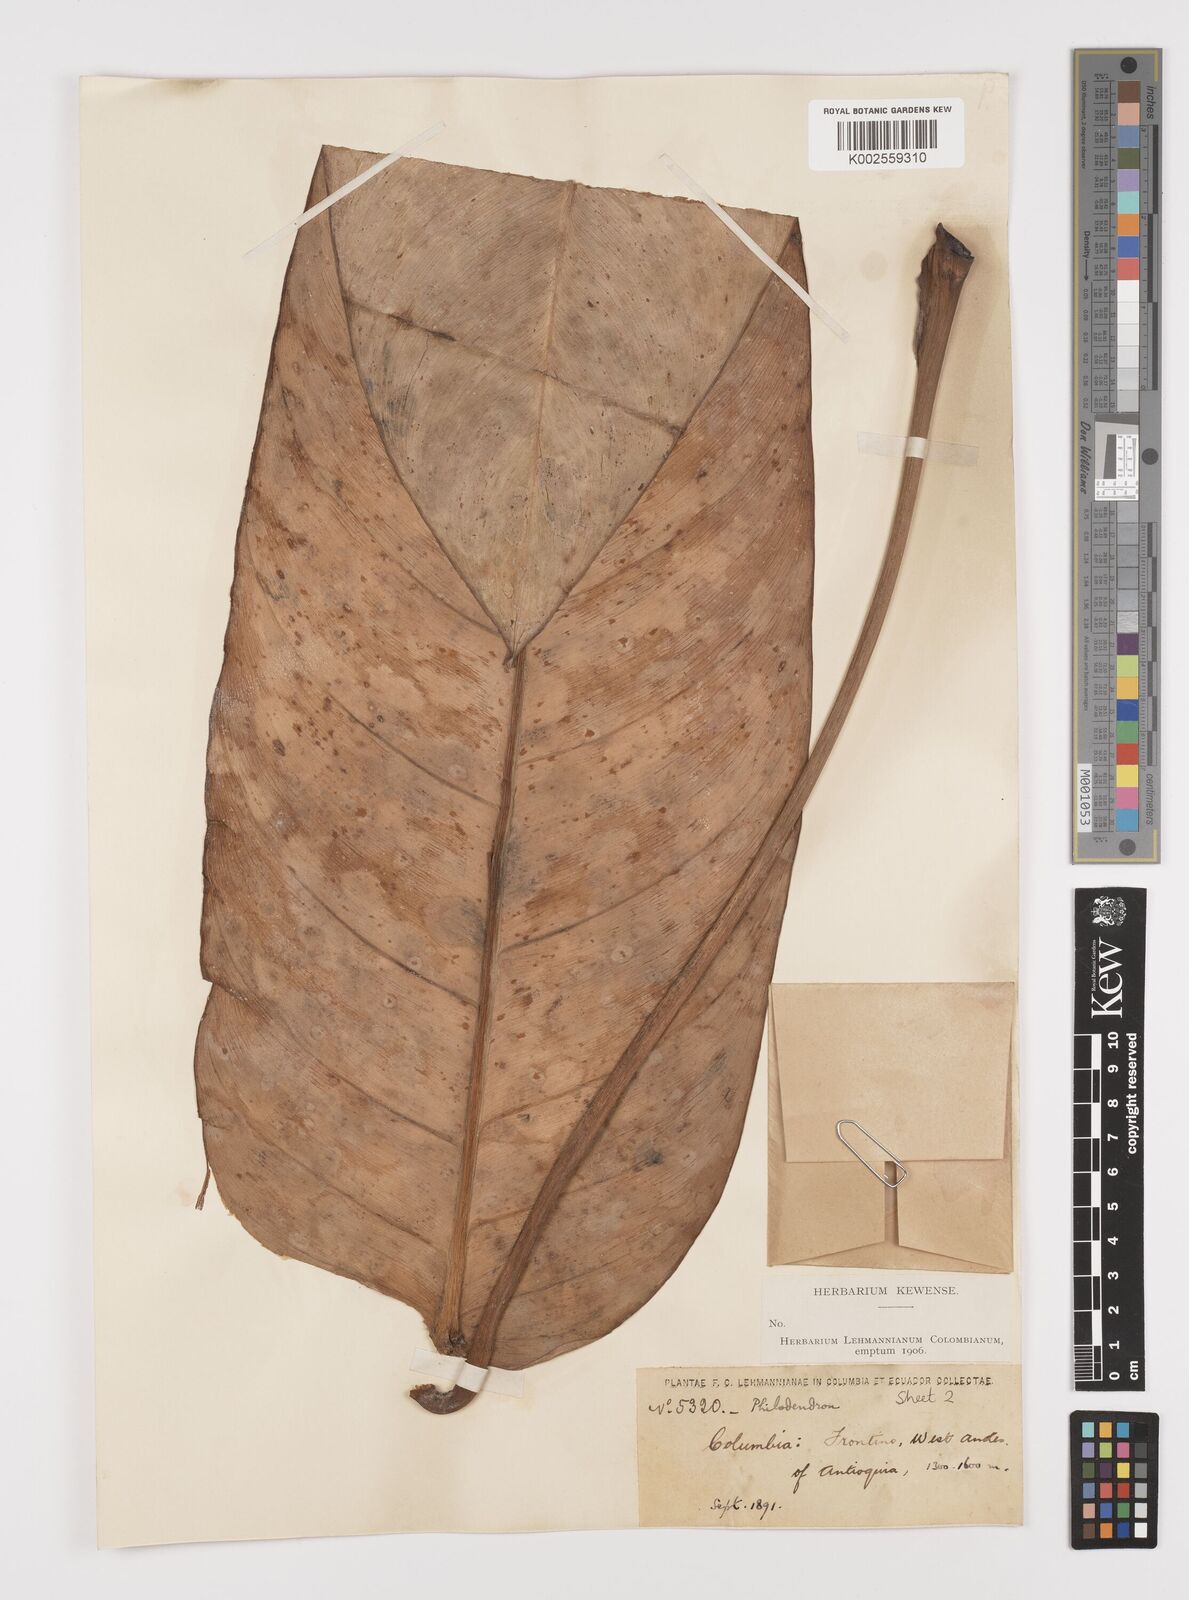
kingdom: Plantae
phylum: Tracheophyta
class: Liliopsida
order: Alismatales
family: Araceae
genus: Philodendron
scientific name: Philodendron ruizii
